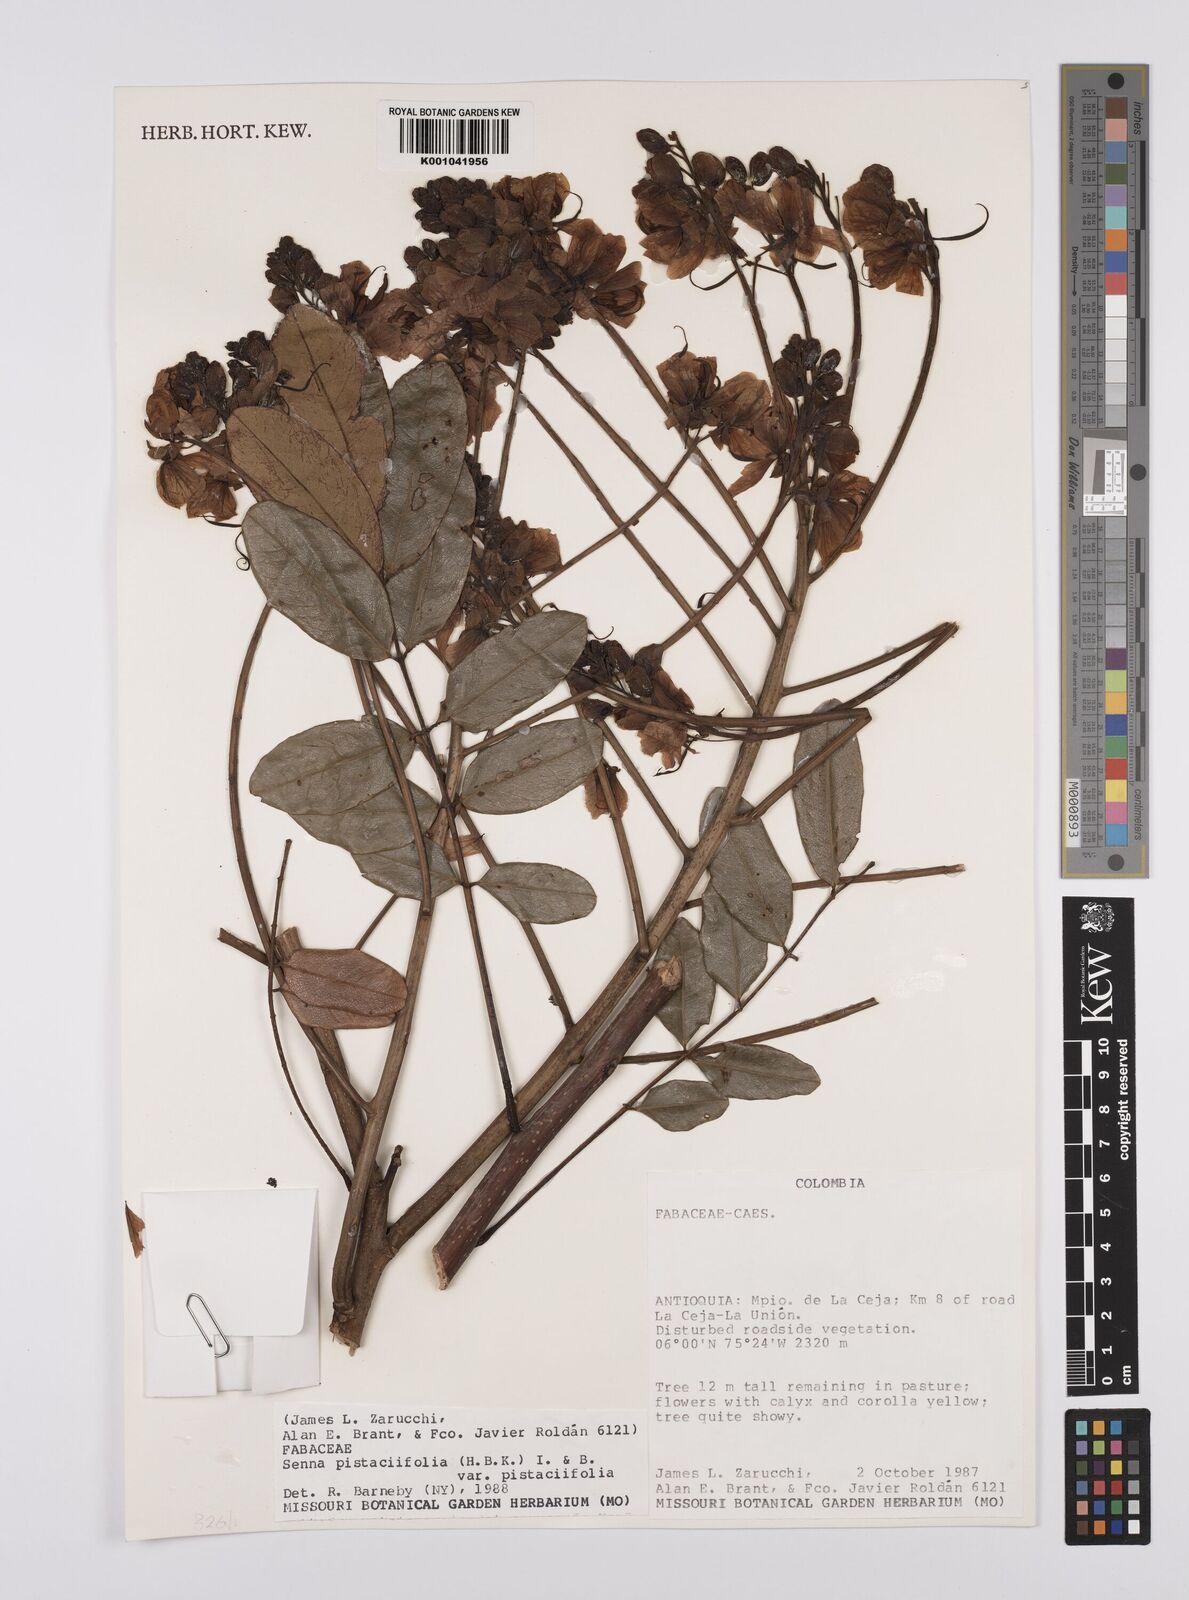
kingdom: Plantae
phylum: Tracheophyta
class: Magnoliopsida
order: Fabales
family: Fabaceae
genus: Senna
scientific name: Senna pistaciifolia
